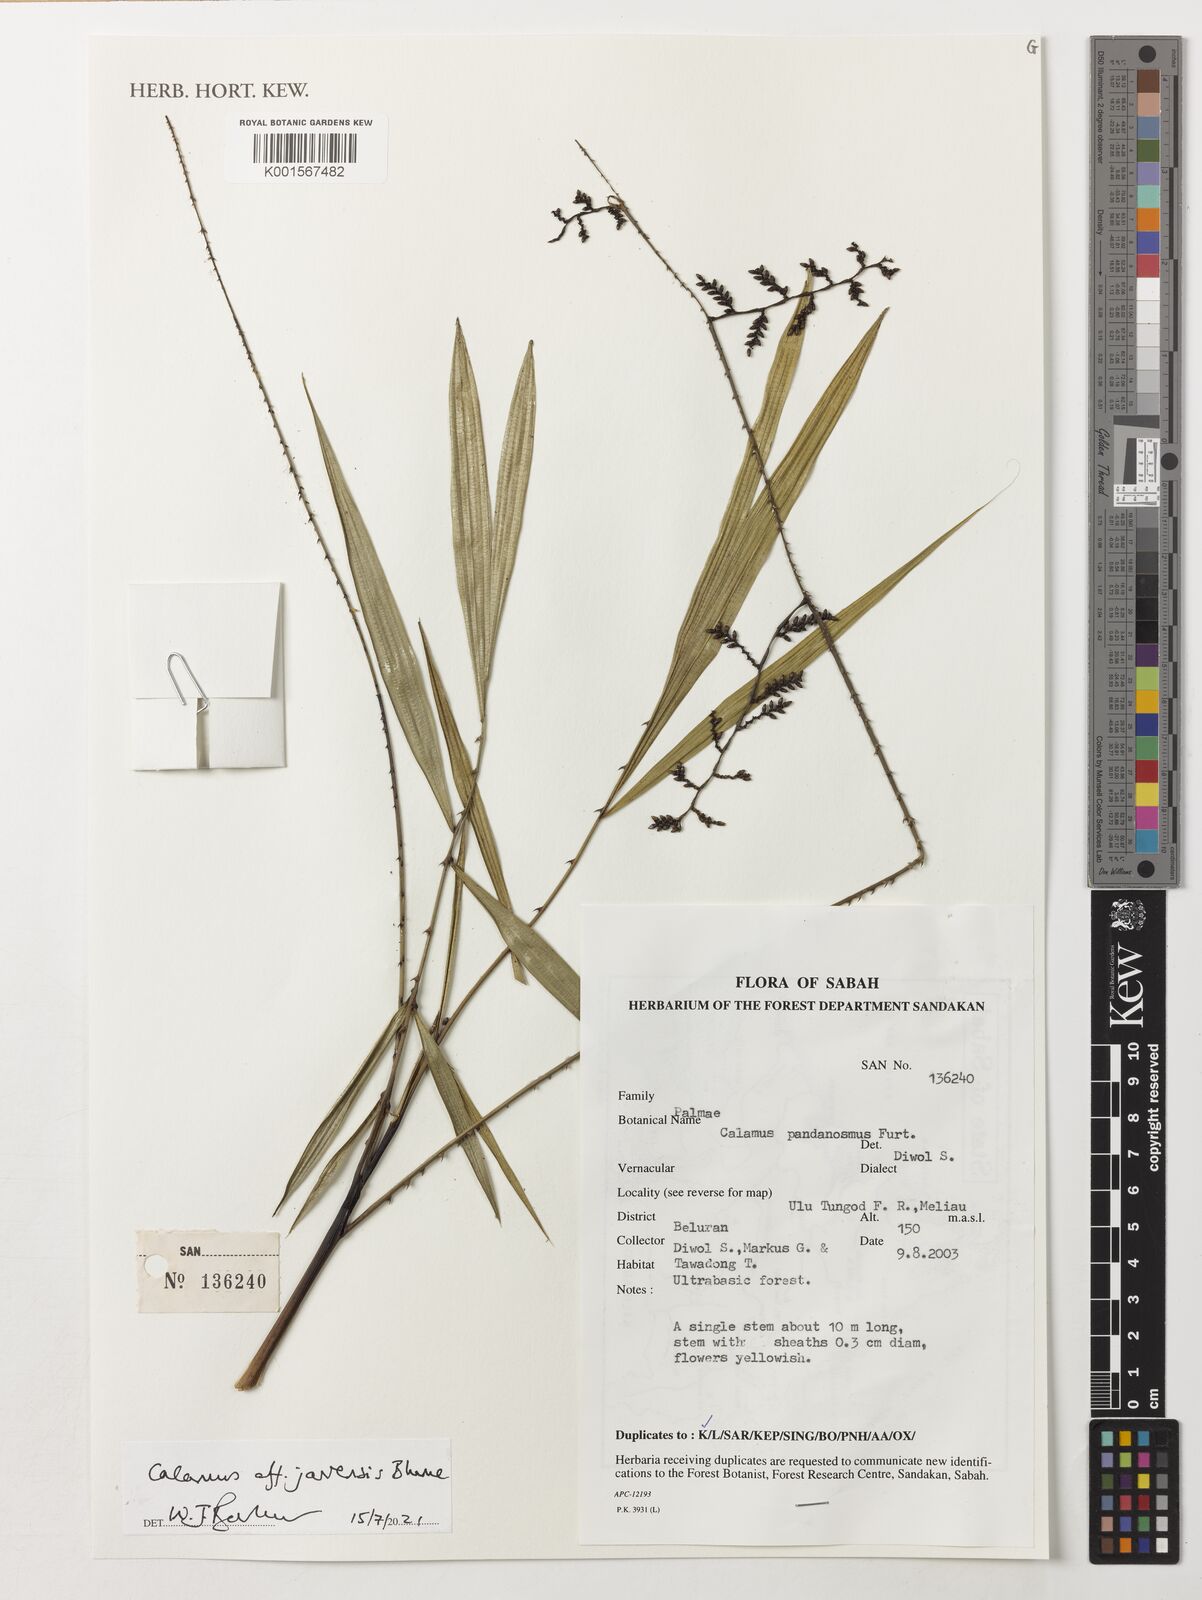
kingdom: Plantae
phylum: Tracheophyta
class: Liliopsida
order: Arecales
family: Arecaceae
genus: Calamus
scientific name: Calamus pandanosmus
